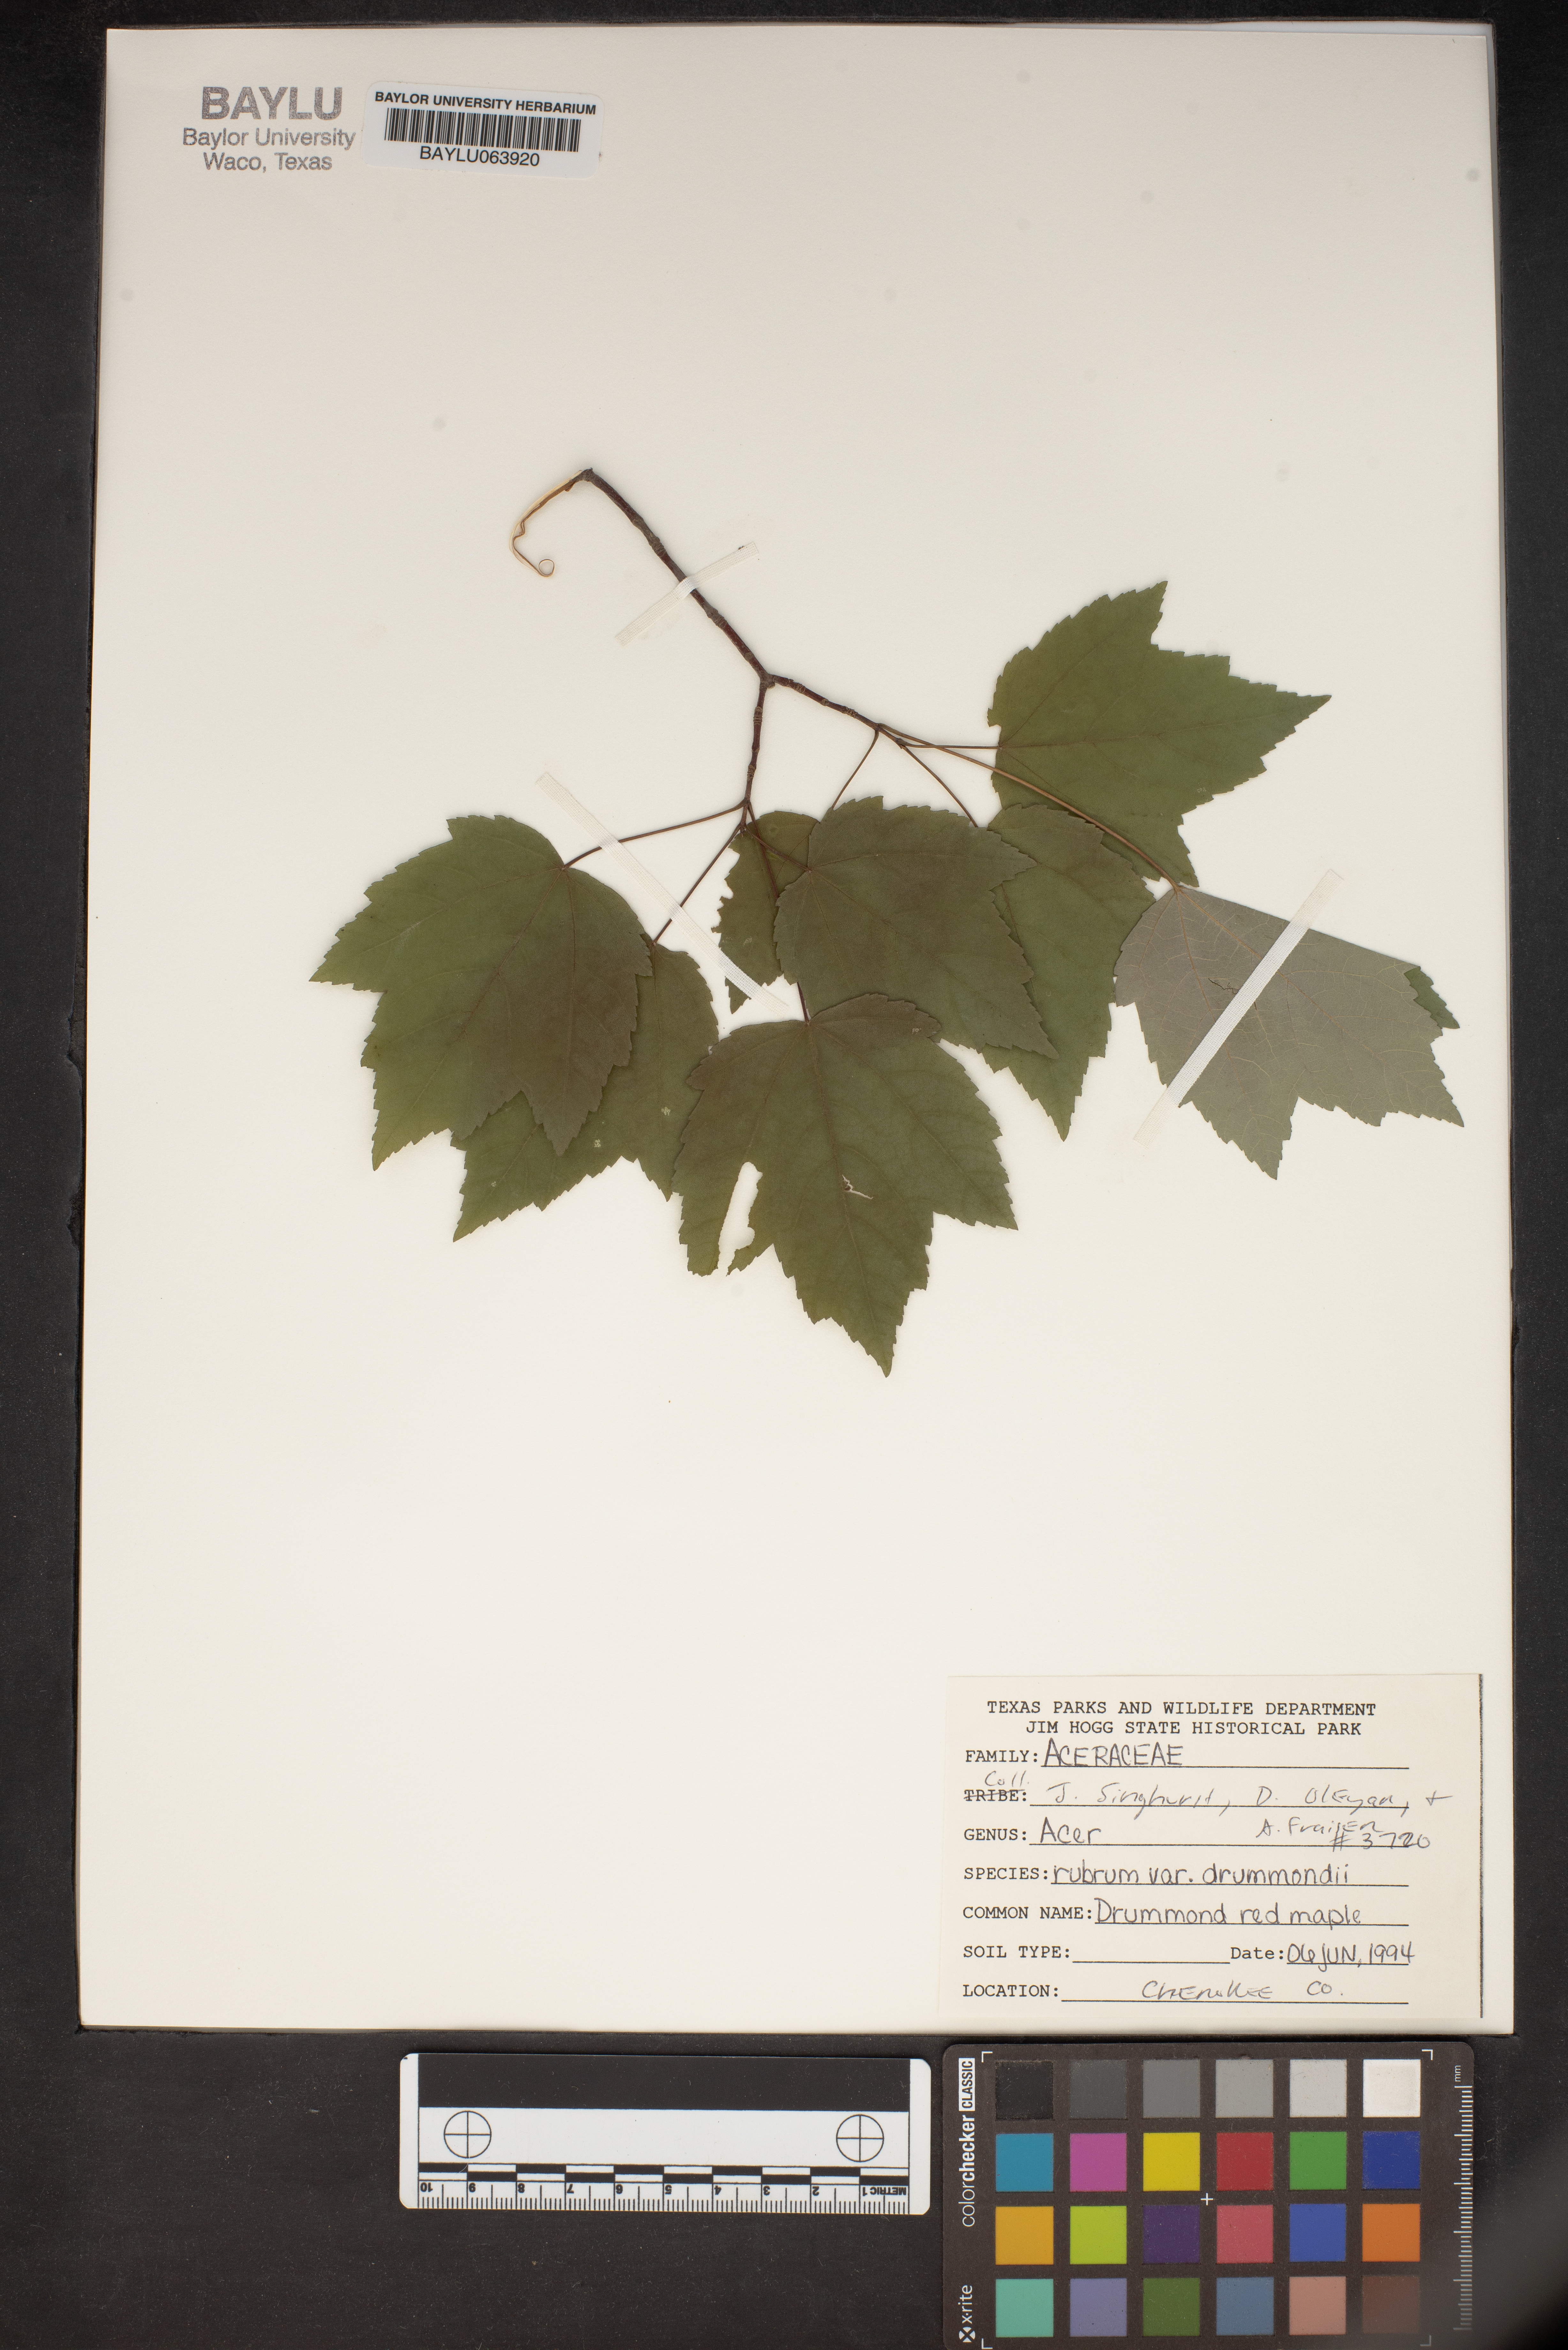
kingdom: Plantae
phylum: Tracheophyta
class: Magnoliopsida
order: Sapindales
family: Sapindaceae
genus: Acer
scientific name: Acer rubrum
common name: Red maple
